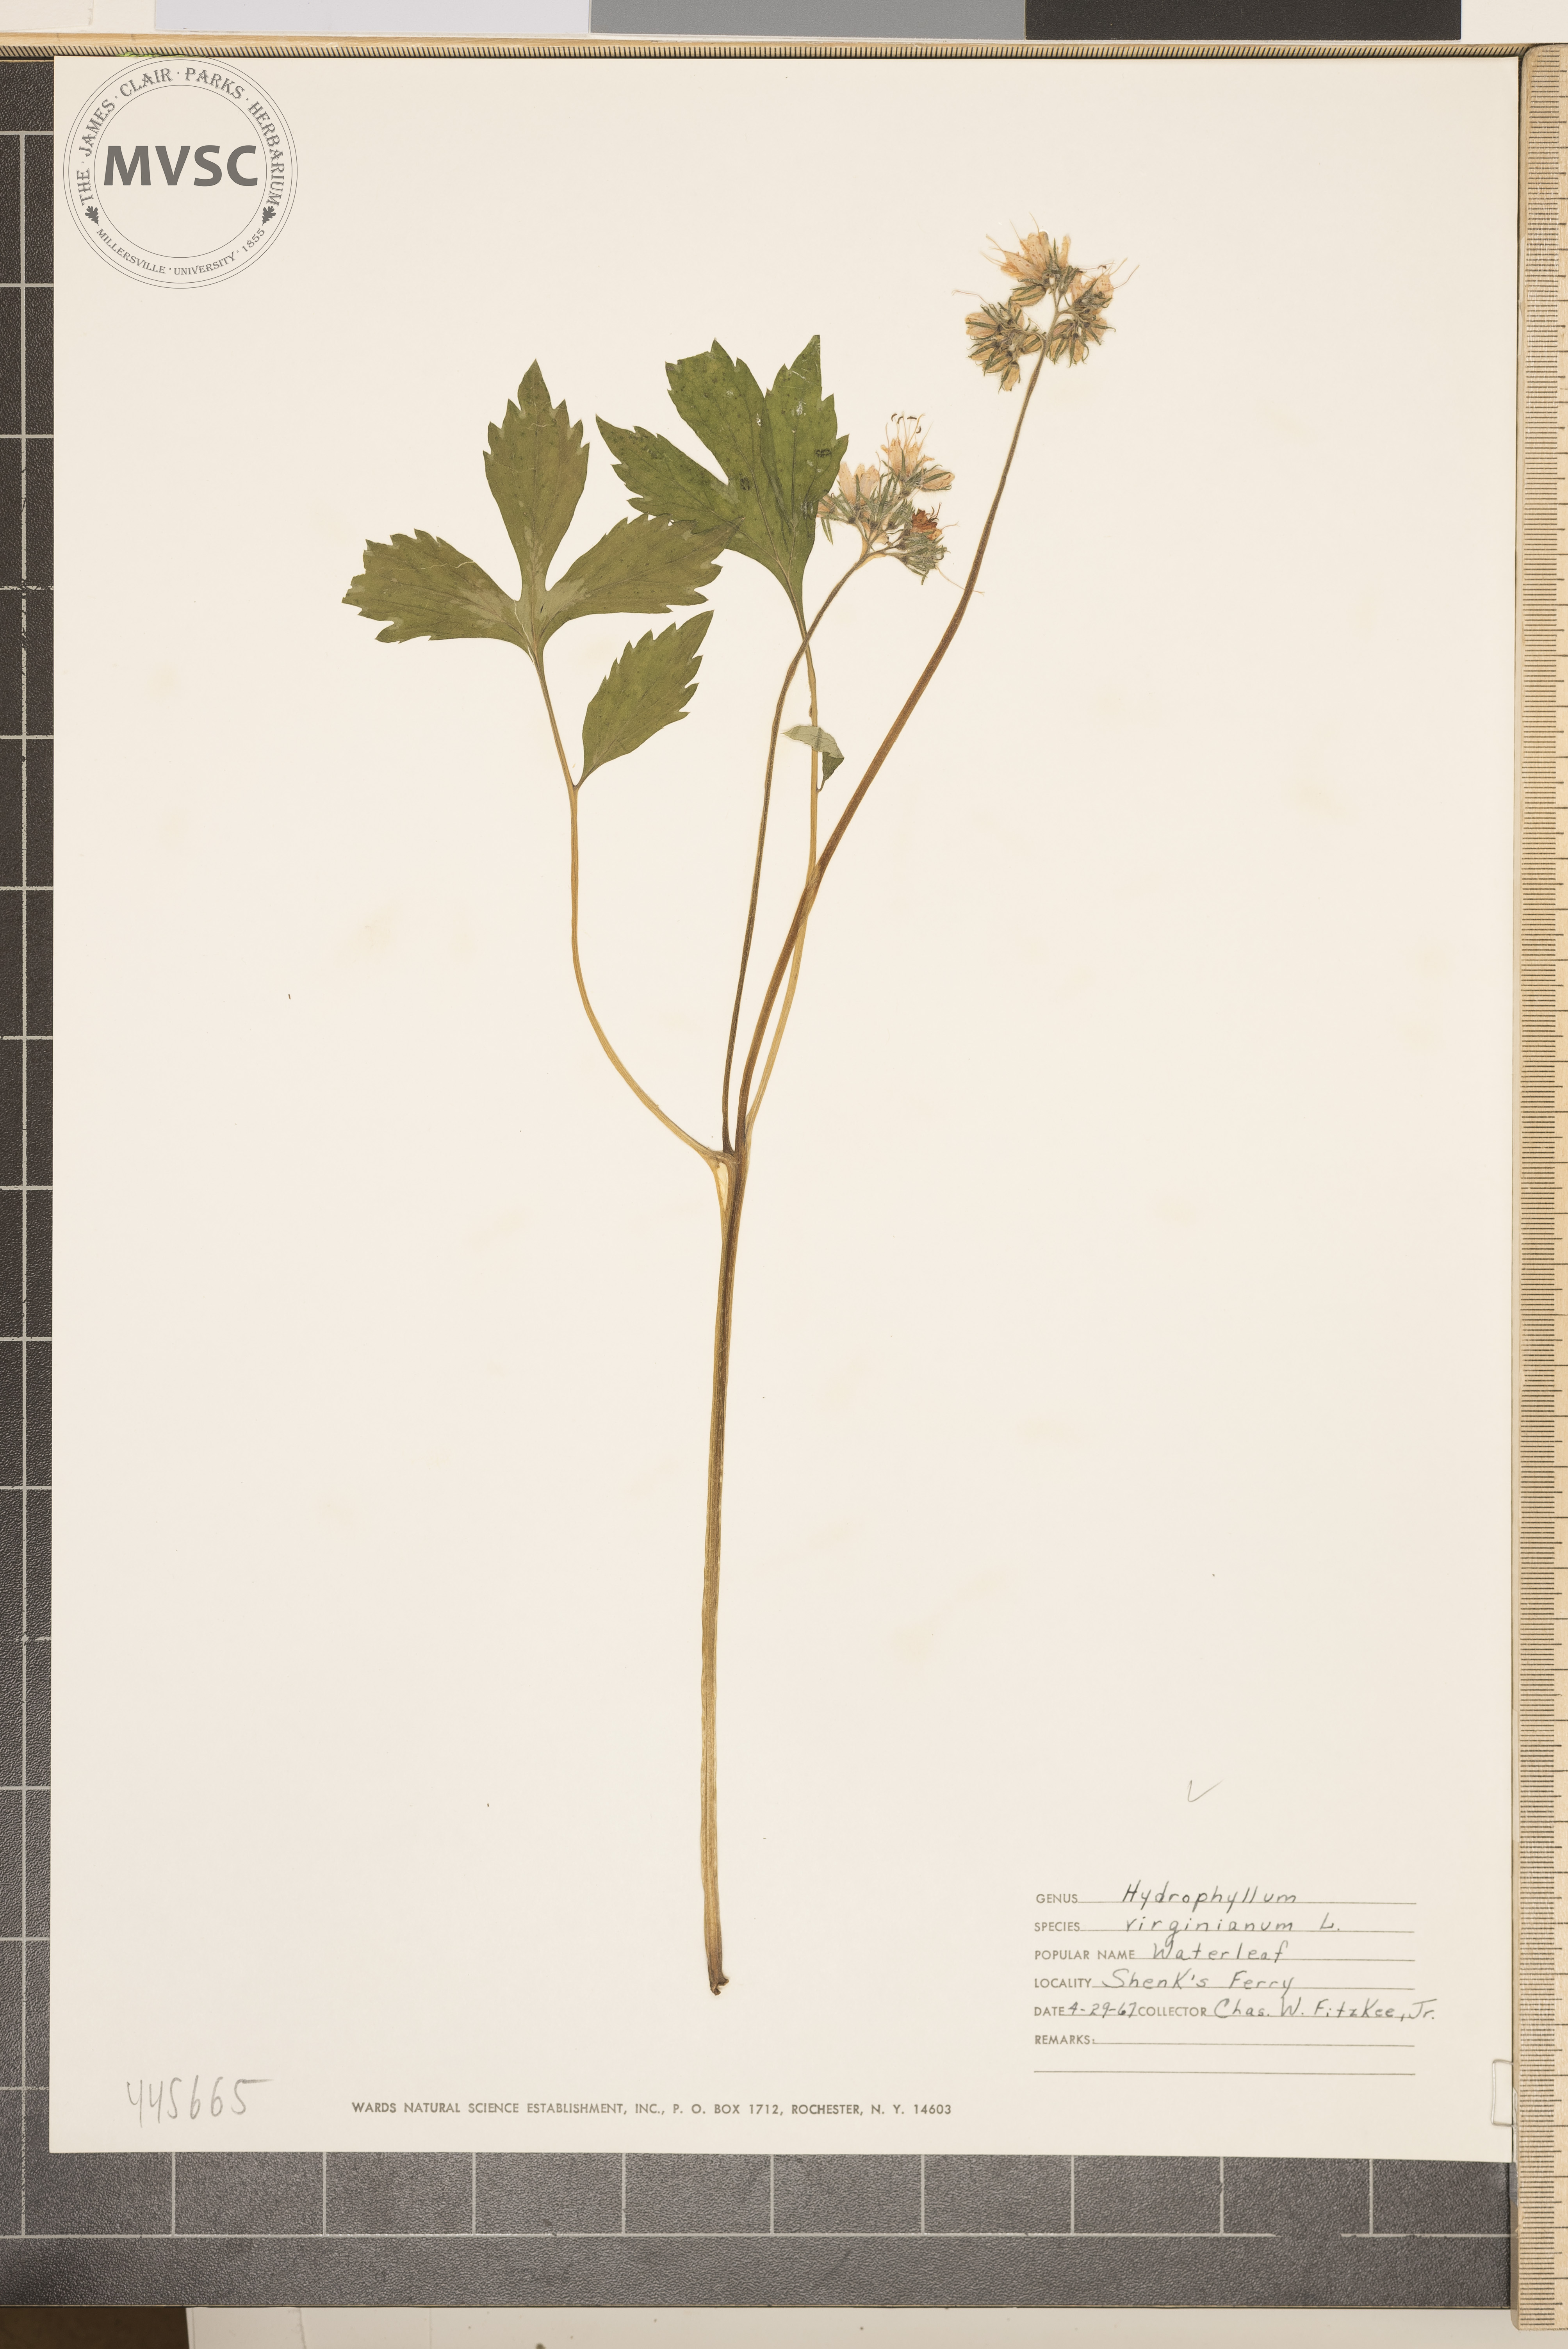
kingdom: Plantae
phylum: Tracheophyta
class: Magnoliopsida
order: Boraginales
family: Hydrophyllaceae
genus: Hydrophyllum
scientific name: Hydrophyllum virginianum
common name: Virginia waterleaf
